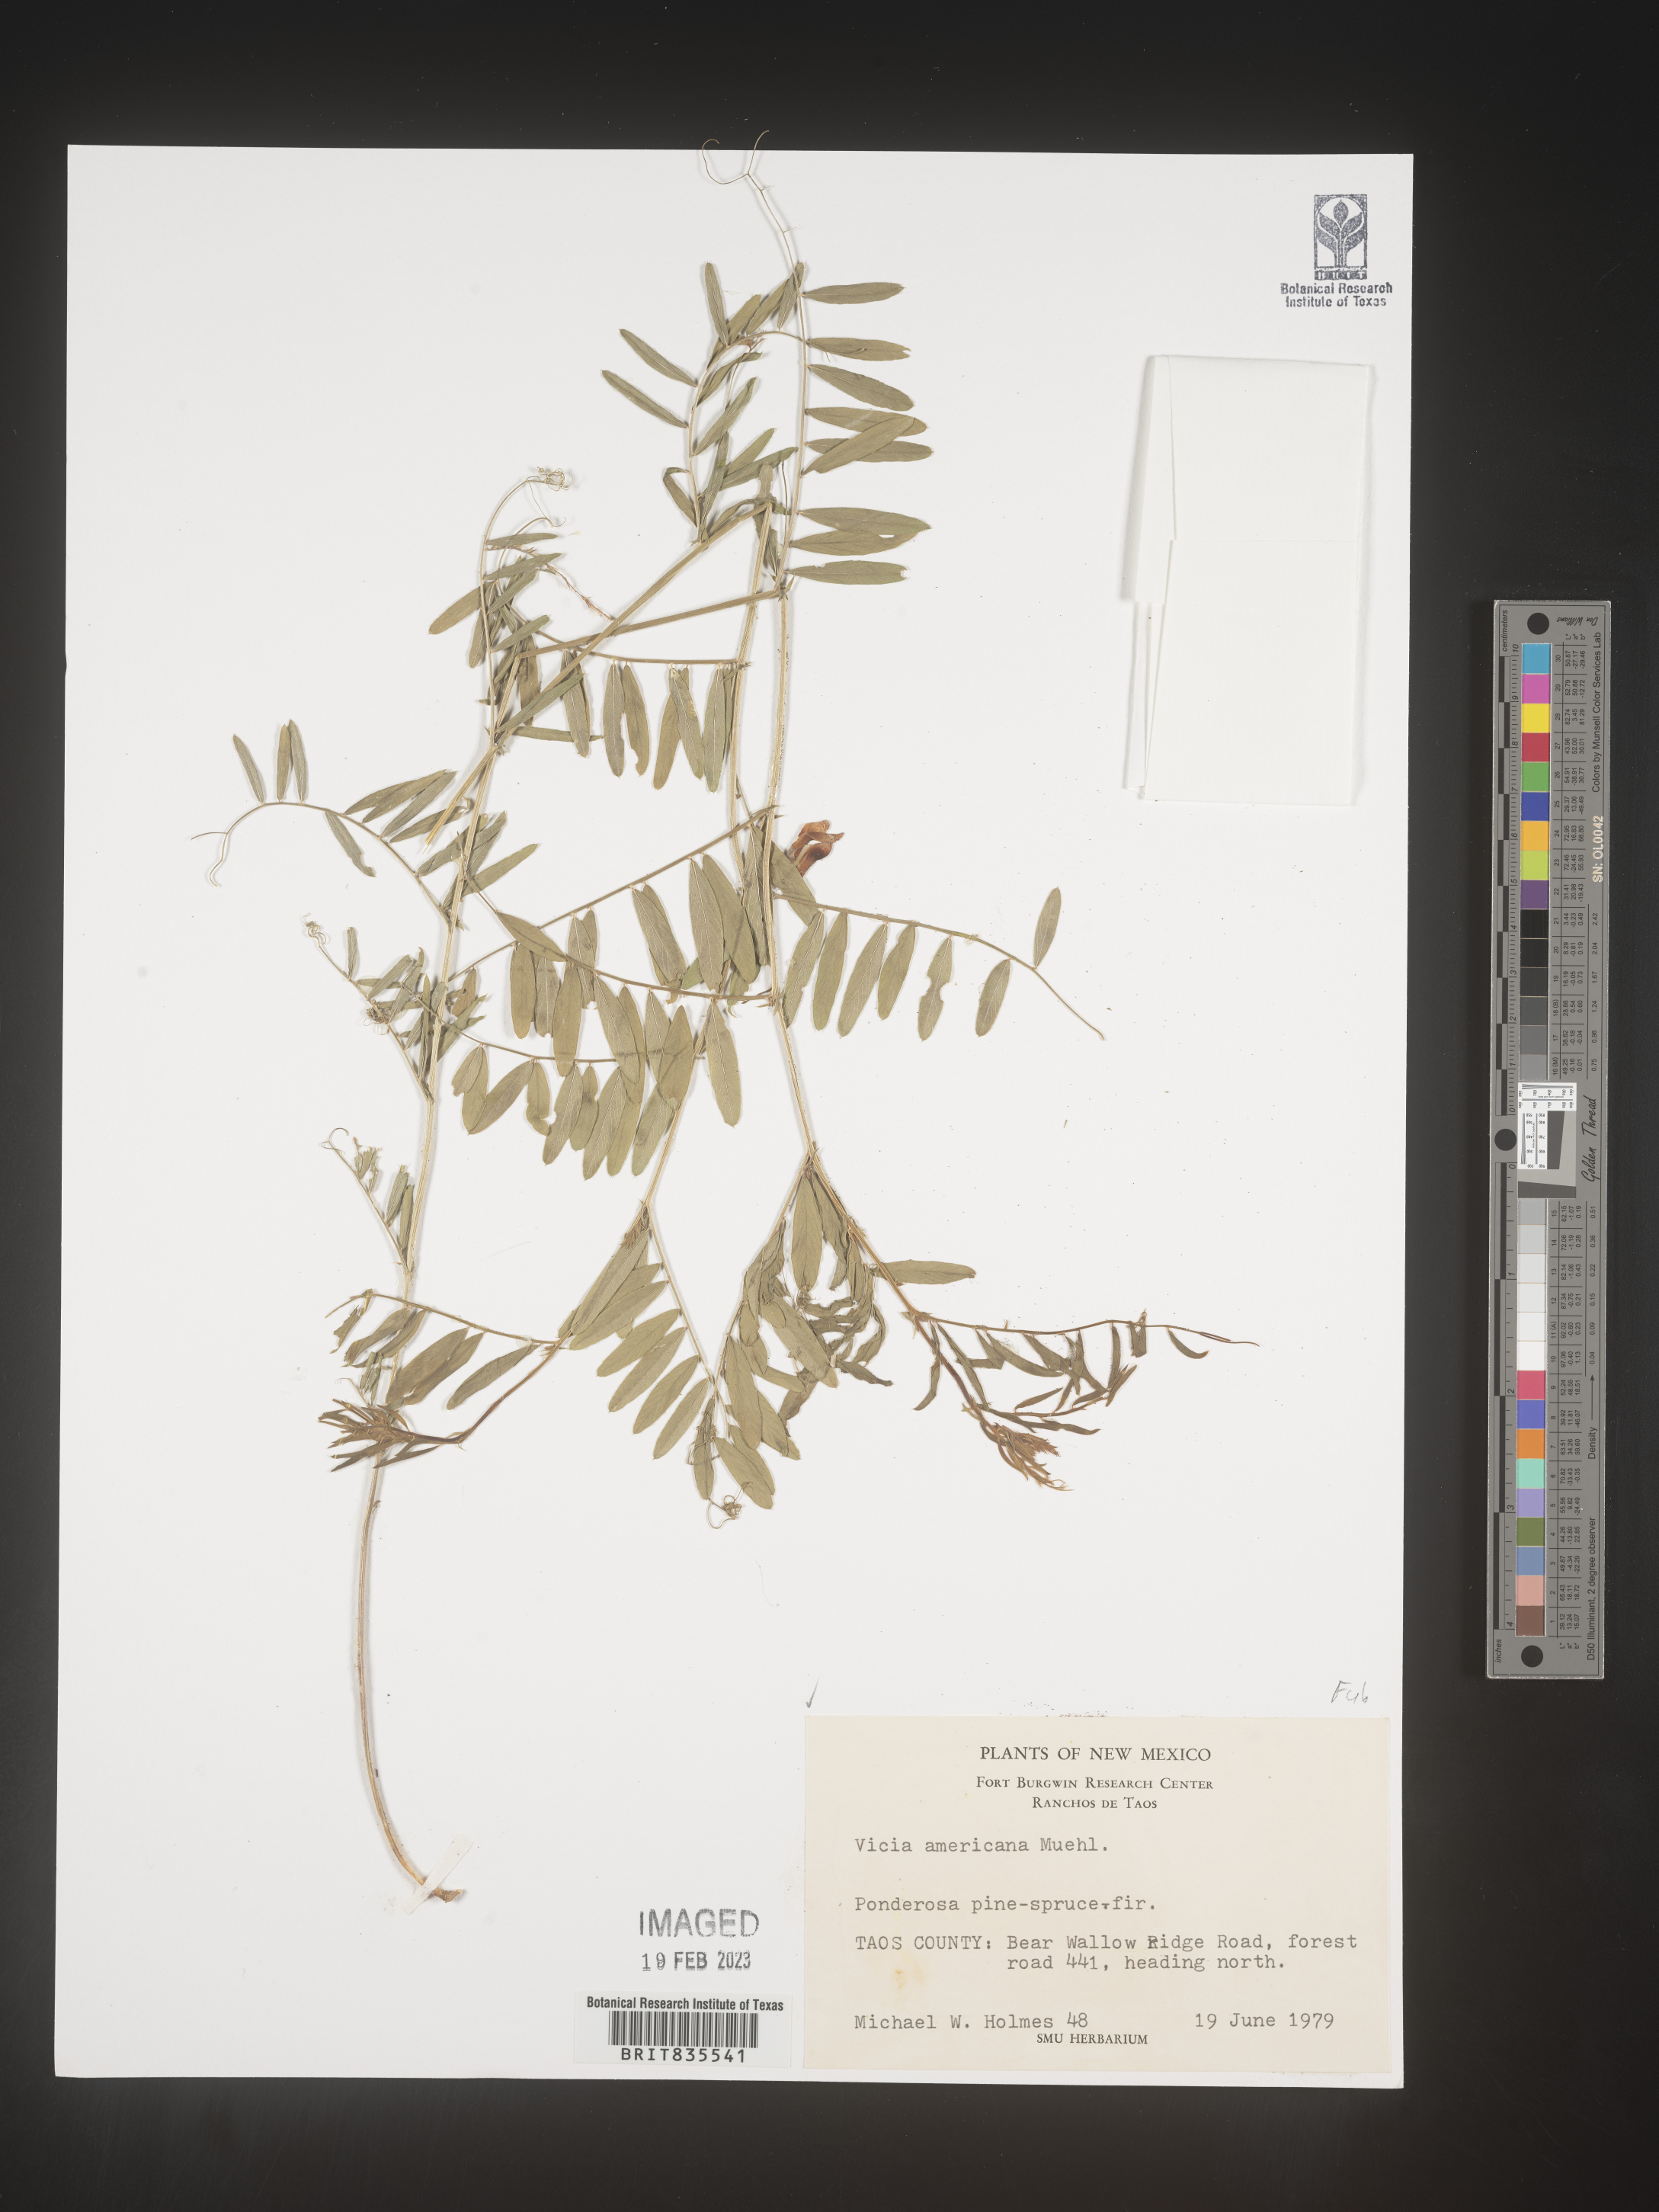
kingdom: Plantae
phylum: Tracheophyta
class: Magnoliopsida
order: Fabales
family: Fabaceae
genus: Vicia
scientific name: Vicia americana
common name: American vetch
